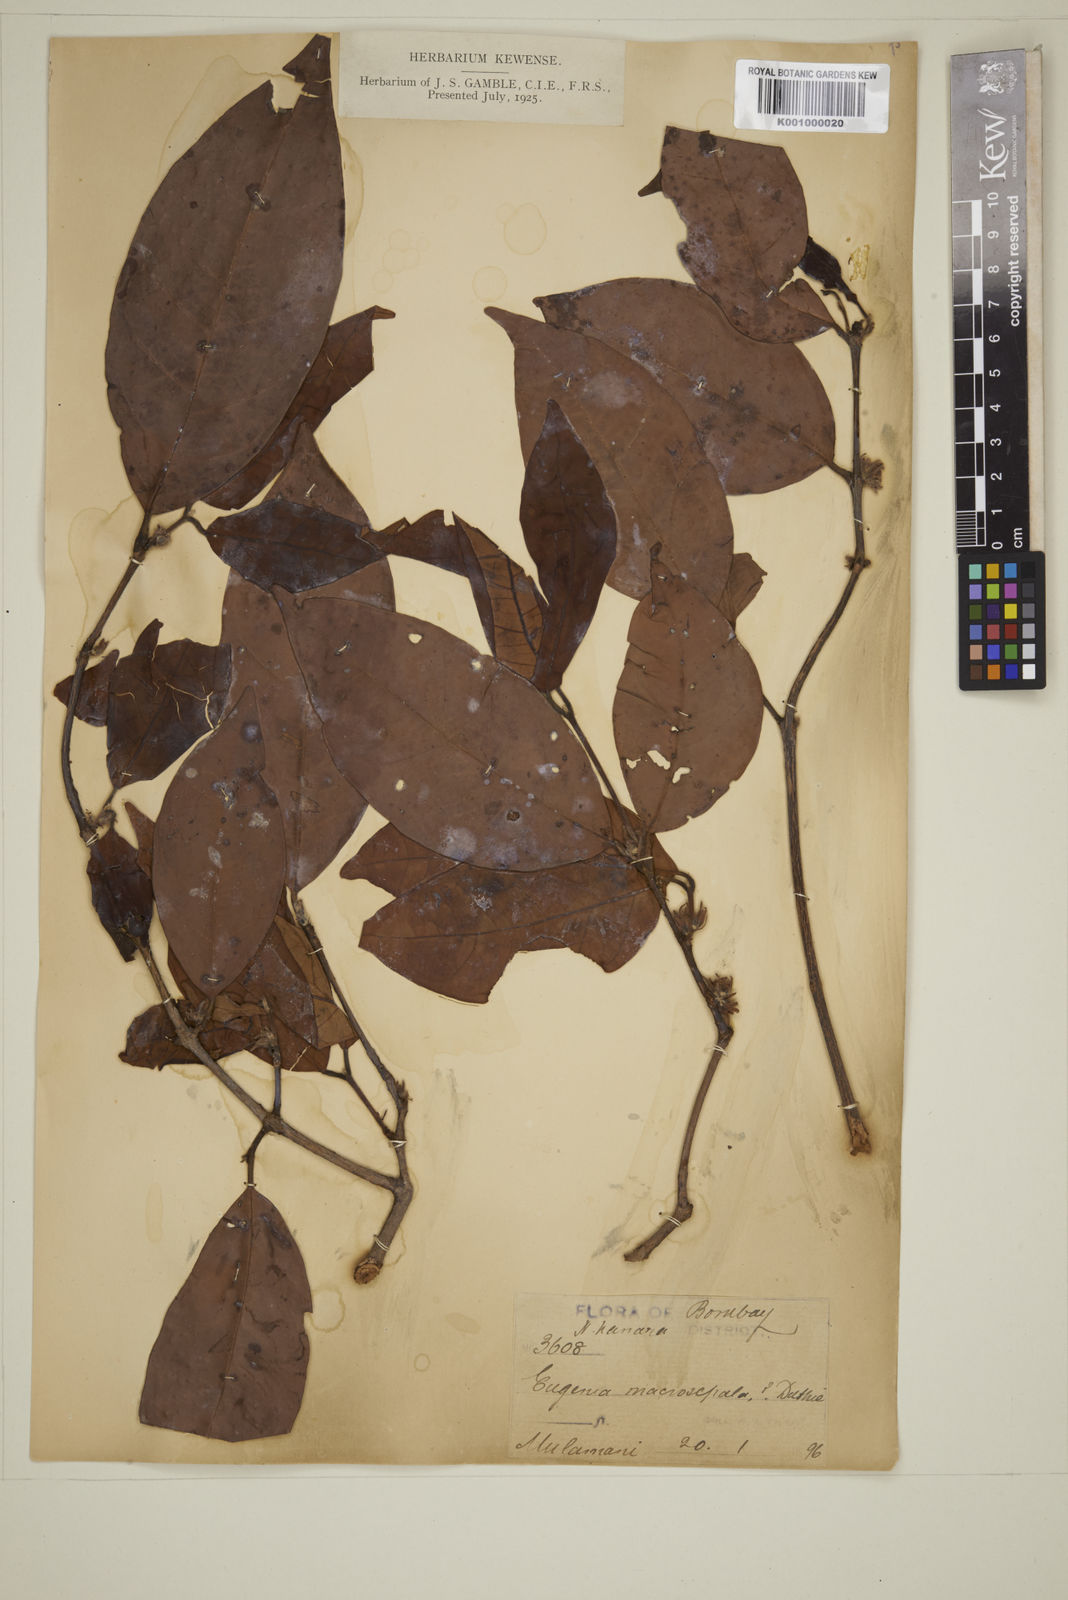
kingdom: Plantae
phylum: Tracheophyta
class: Magnoliopsida
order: Myrtales
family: Myrtaceae
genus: Eugenia
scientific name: Eugenia macrosepala
